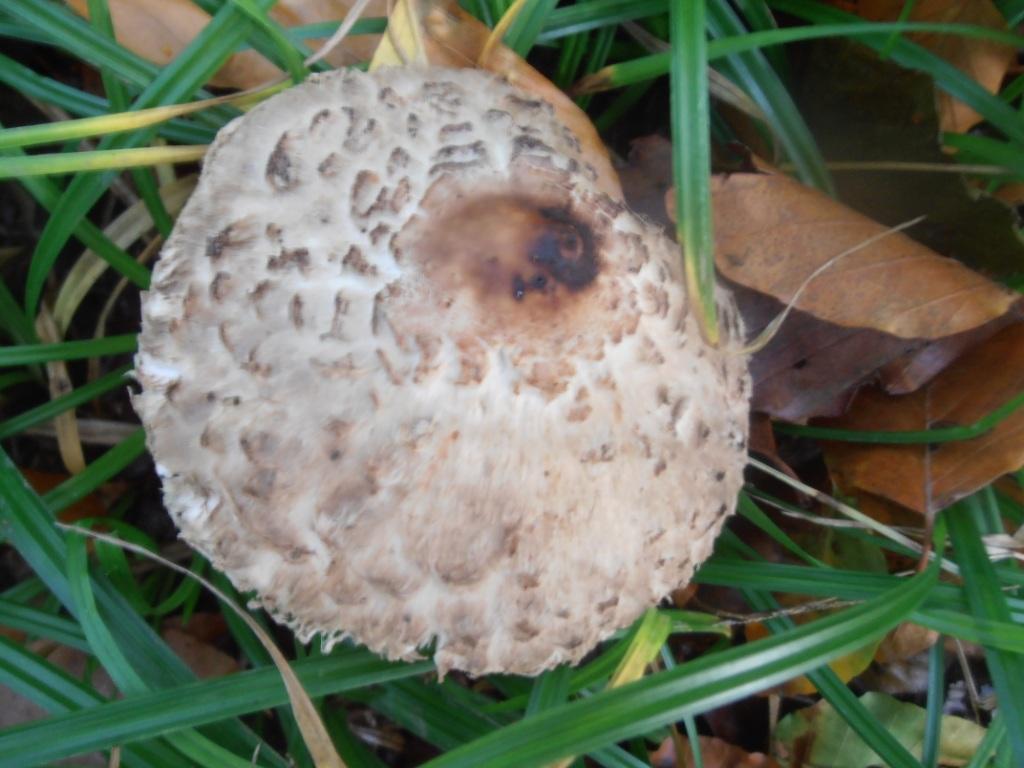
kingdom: Fungi
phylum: Basidiomycota
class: Agaricomycetes
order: Agaricales
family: Agaricaceae
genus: Chlorophyllum
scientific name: Chlorophyllum brunneum
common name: giftig rabarberhat
